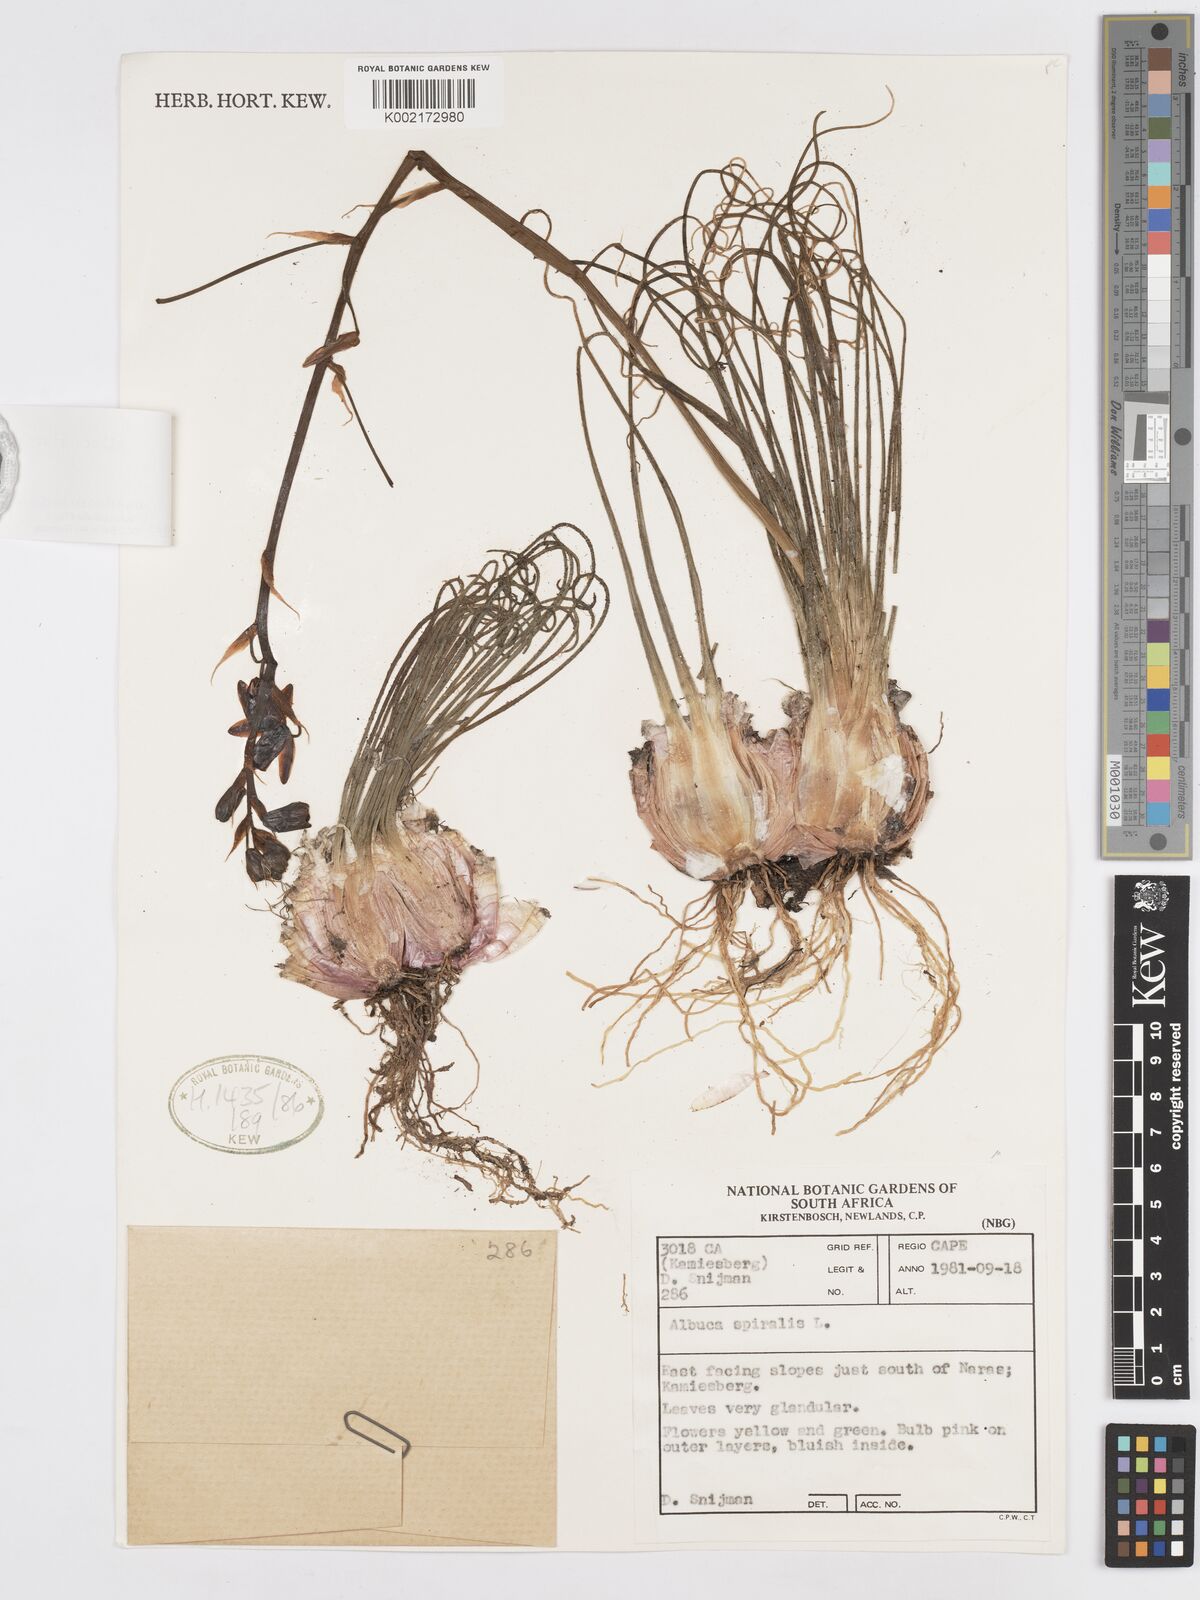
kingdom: Plantae
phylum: Tracheophyta
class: Liliopsida
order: Asparagales
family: Asparagaceae
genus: Albuca
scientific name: Albuca viscosa
